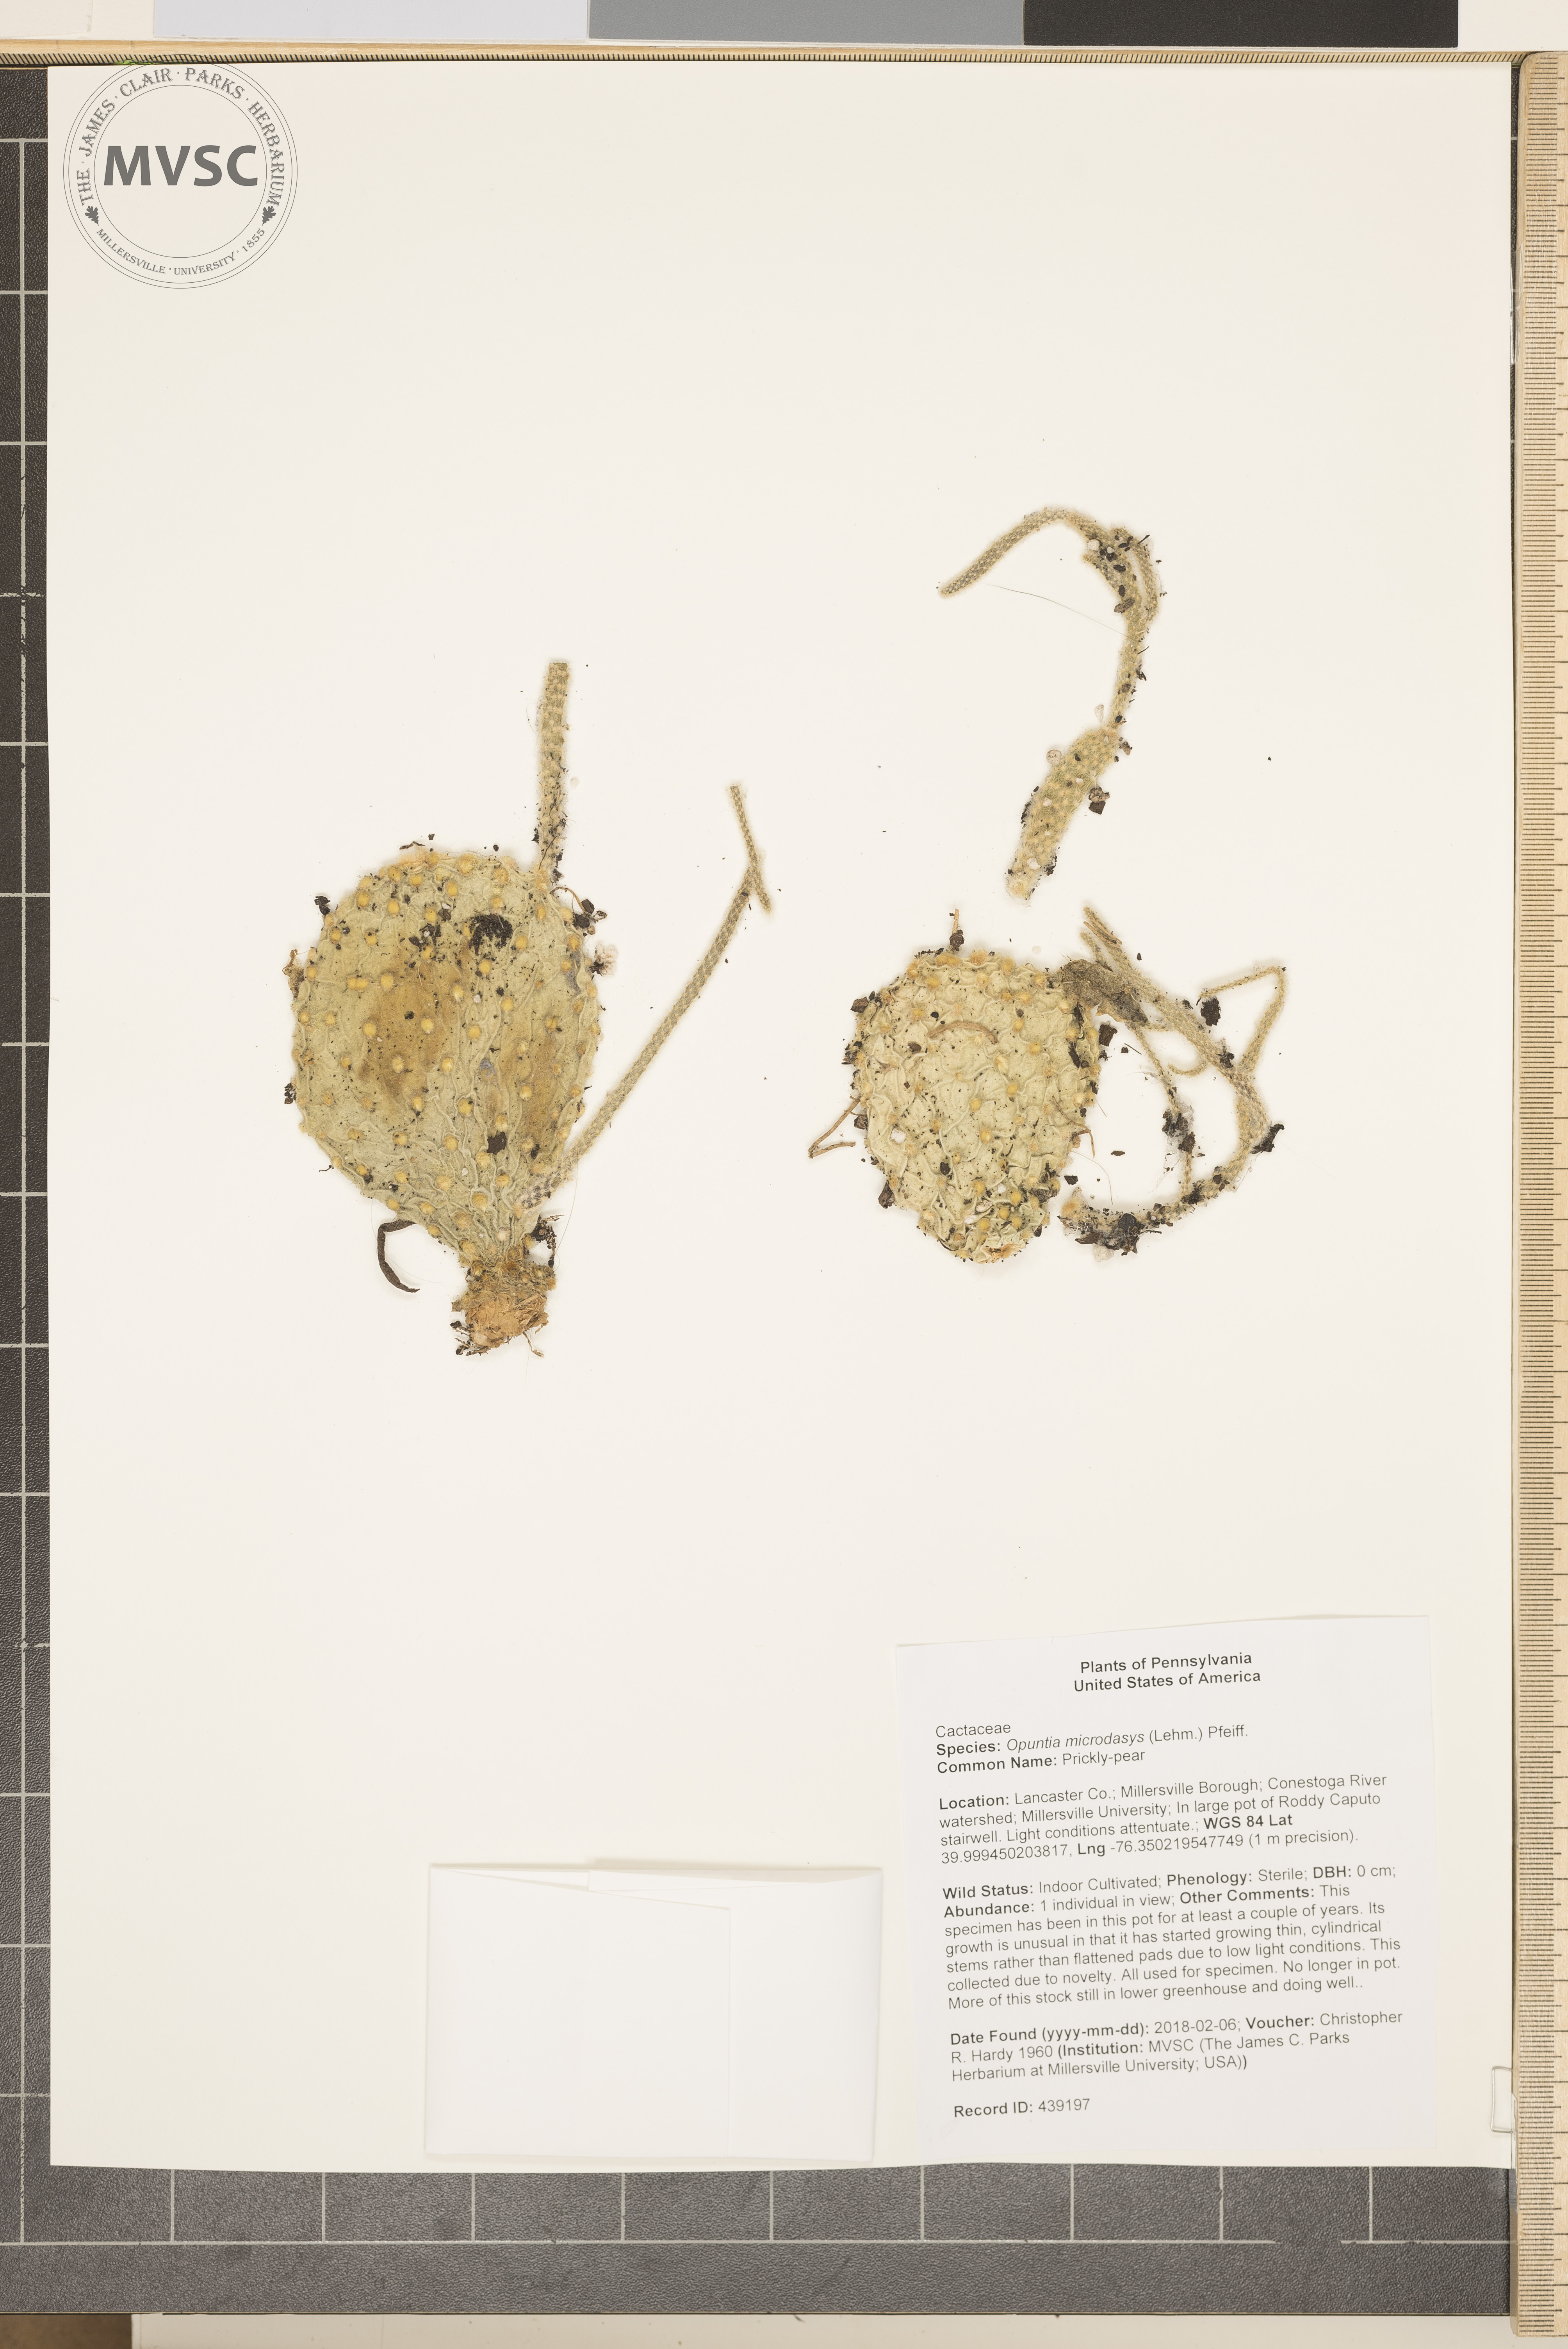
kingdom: Plantae
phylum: Tracheophyta
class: Magnoliopsida
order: Caryophyllales
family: Cactaceae
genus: Opuntia
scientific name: Opuntia microdasys
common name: Prickly-pear
